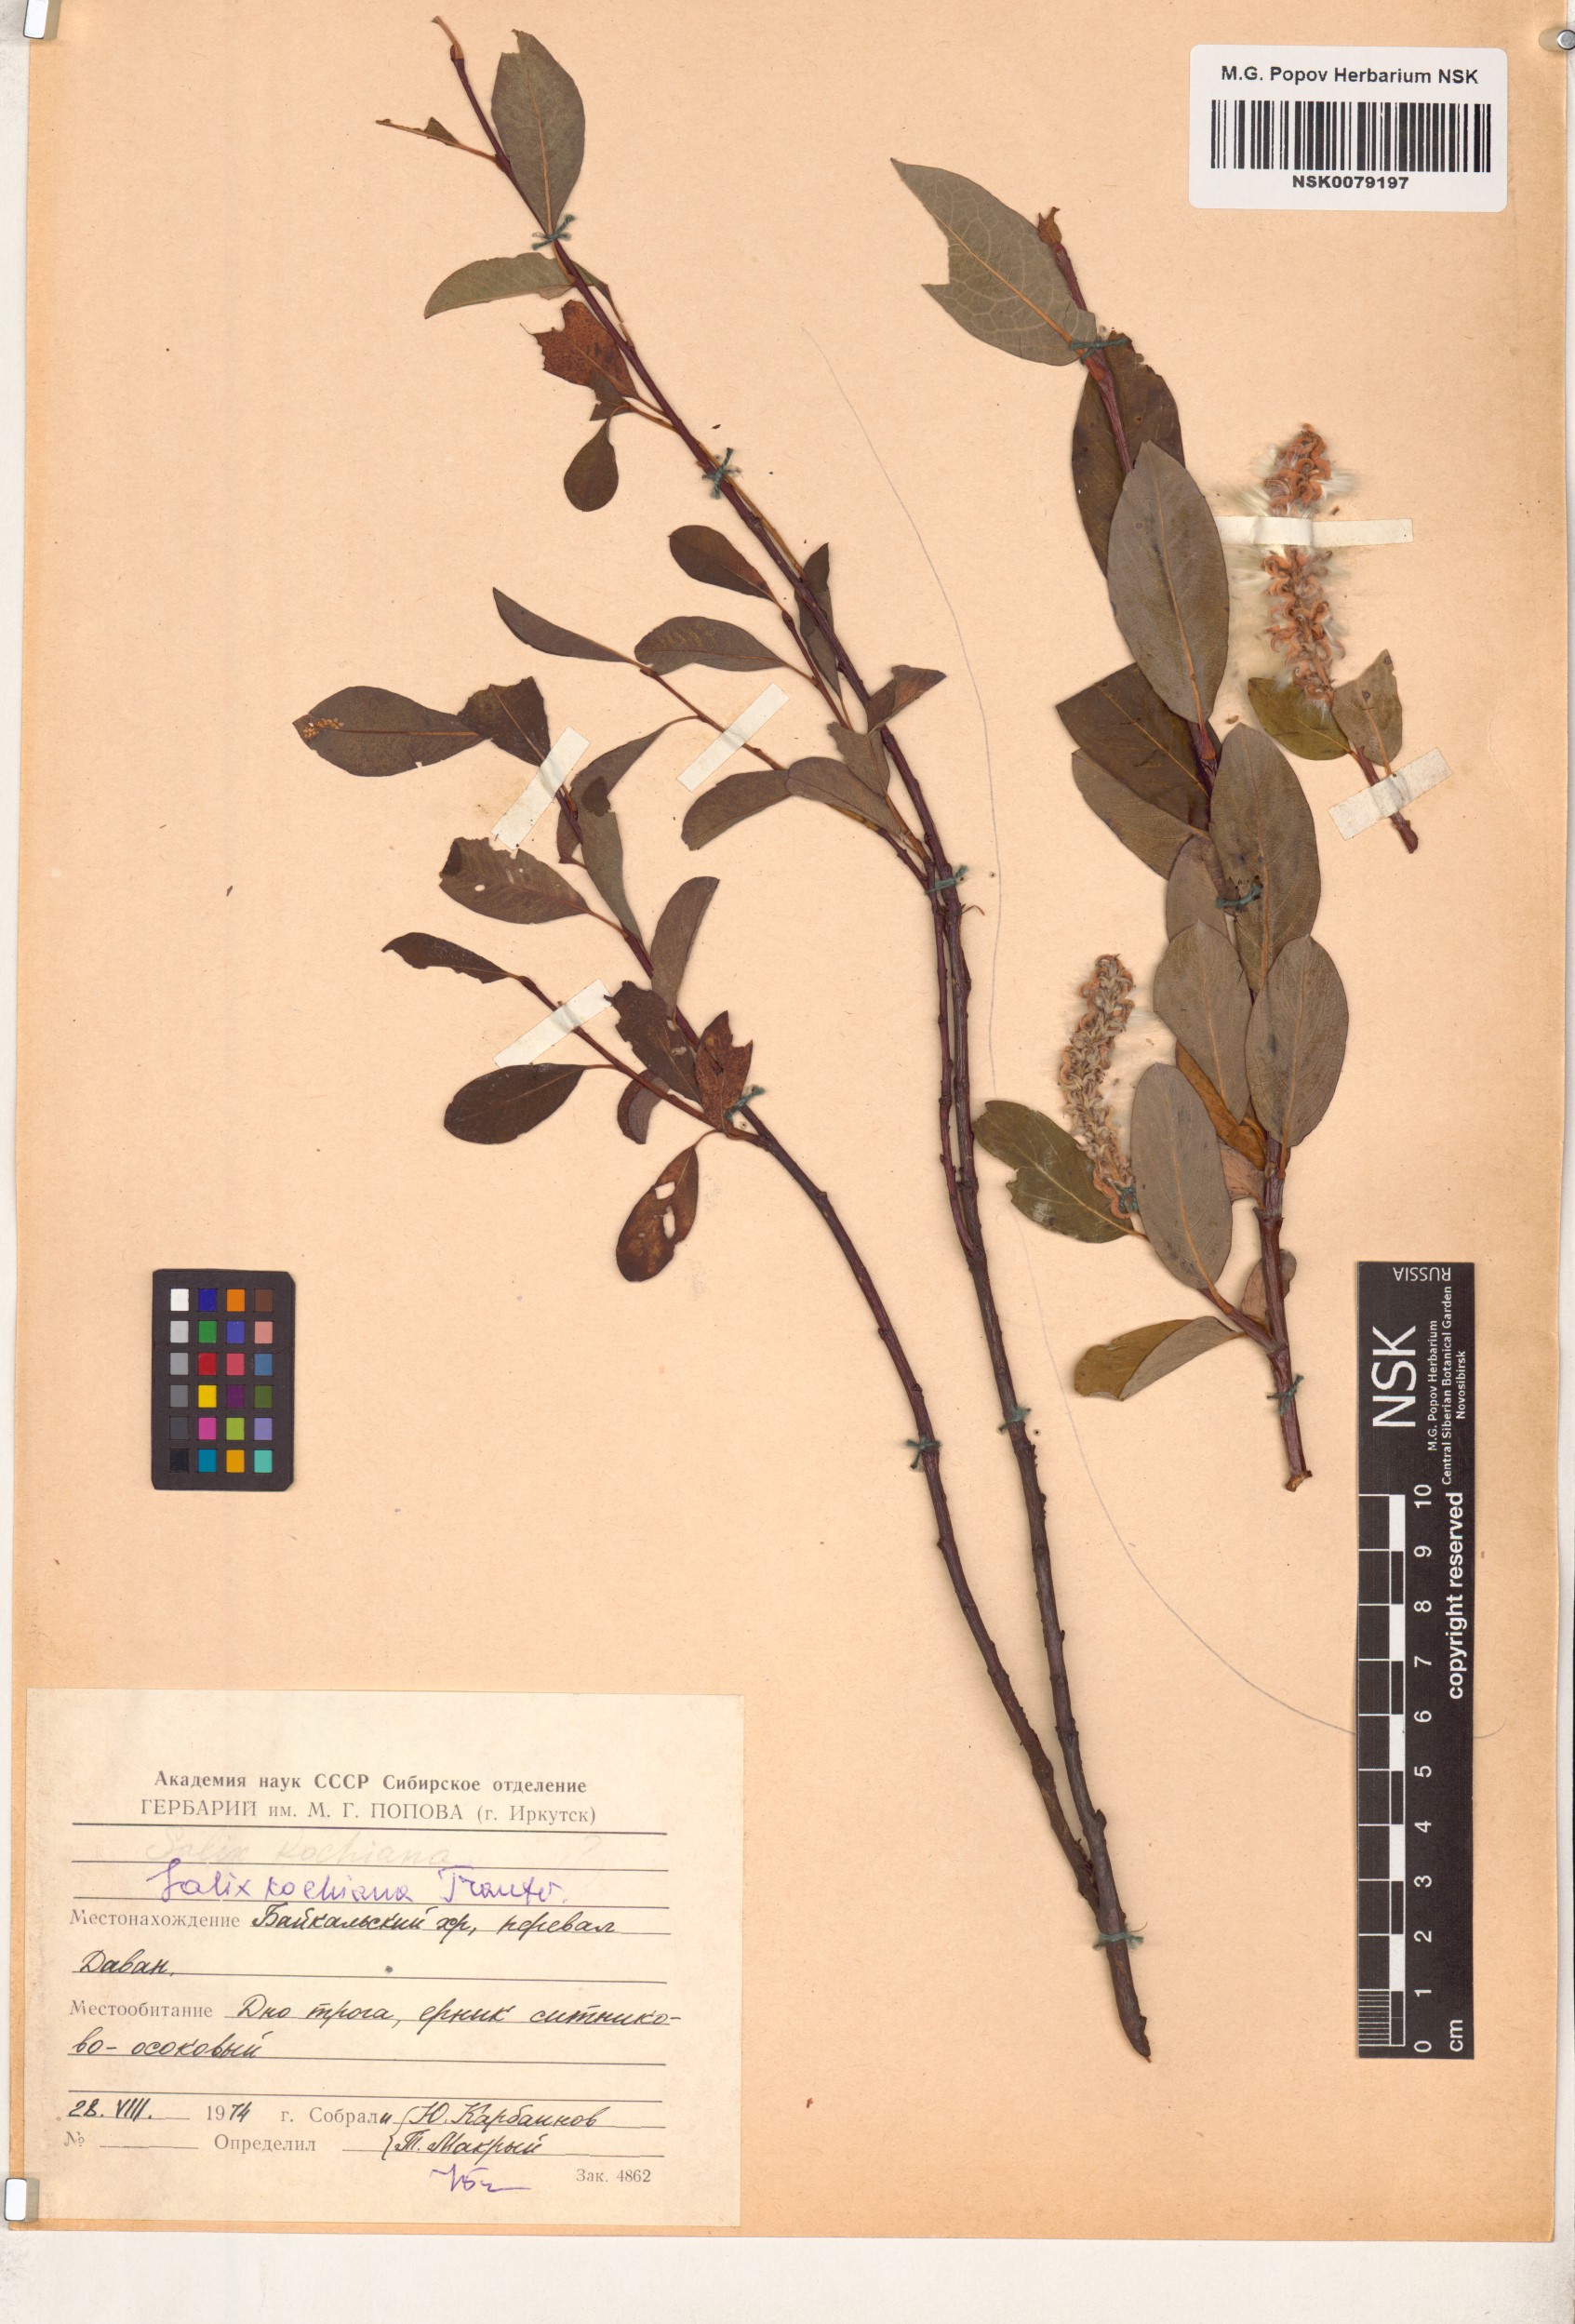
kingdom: Plantae
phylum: Tracheophyta
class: Magnoliopsida
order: Malpighiales
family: Salicaceae
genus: Salix
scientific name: Salix kochiana
